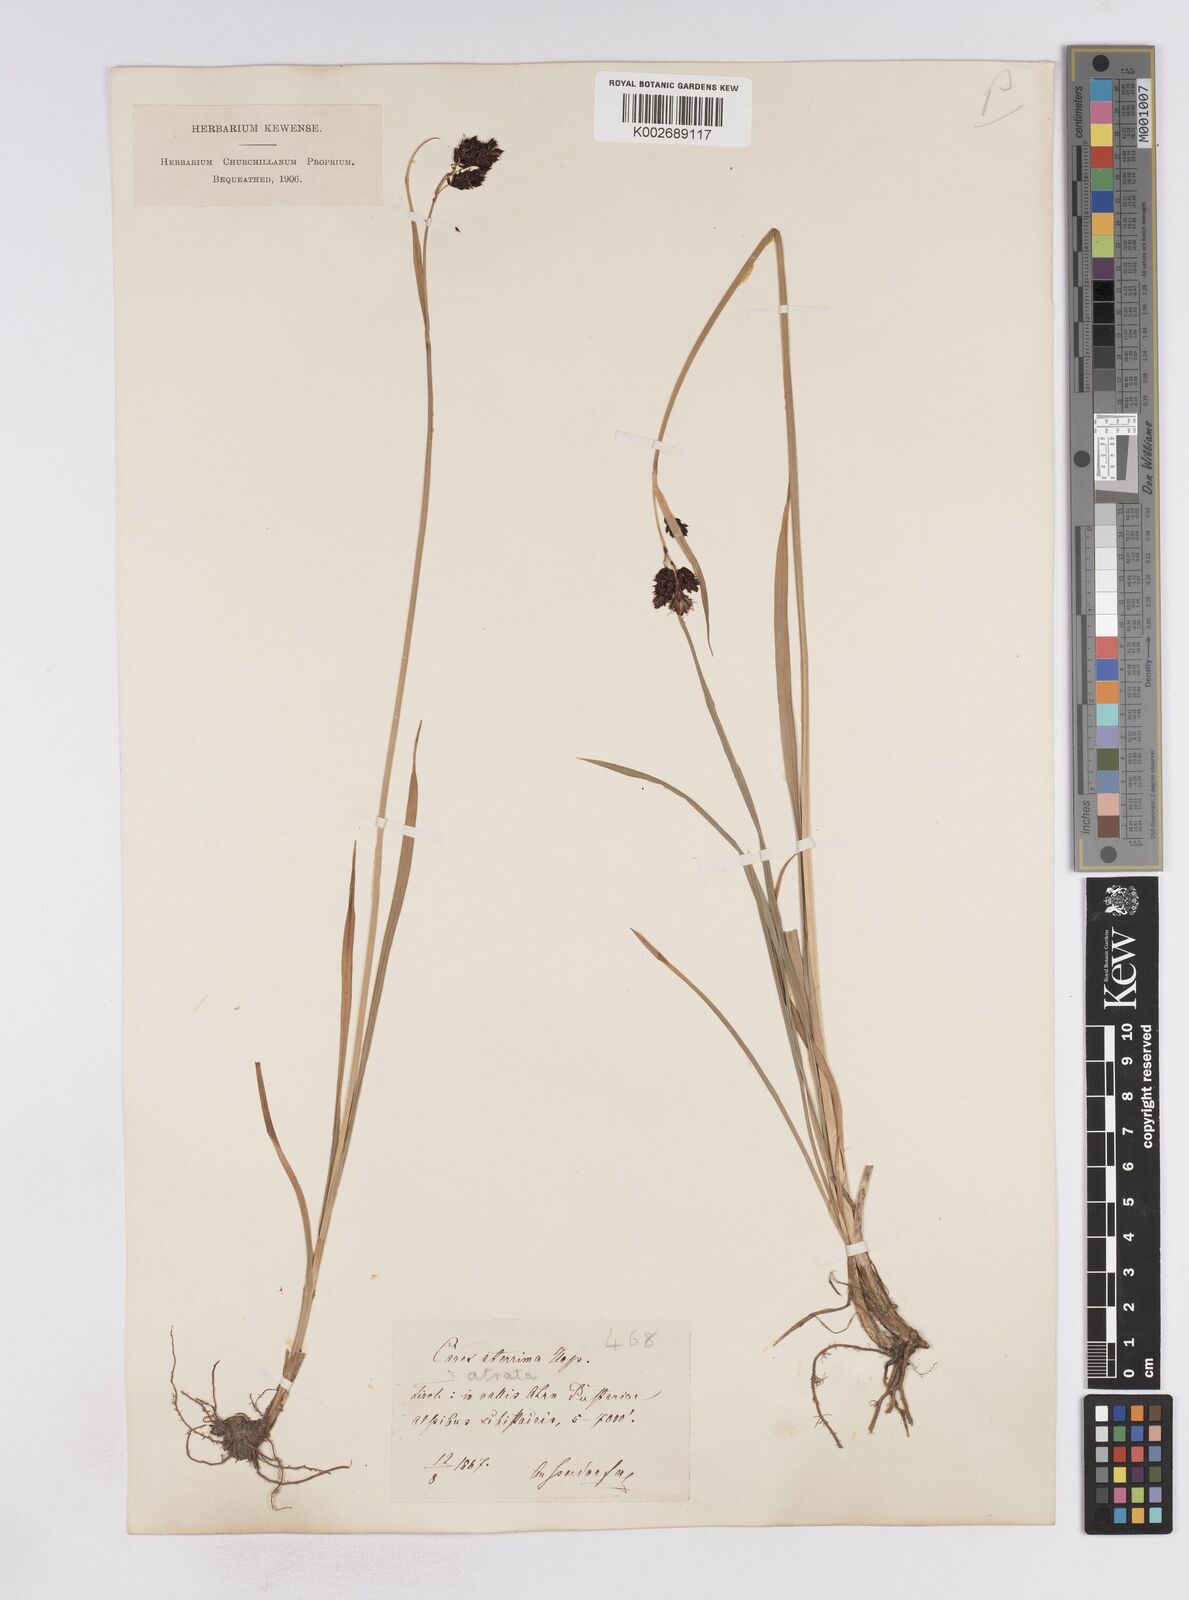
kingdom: Plantae
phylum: Tracheophyta
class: Liliopsida
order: Poales
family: Cyperaceae
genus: Carex
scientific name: Carex aterrima
